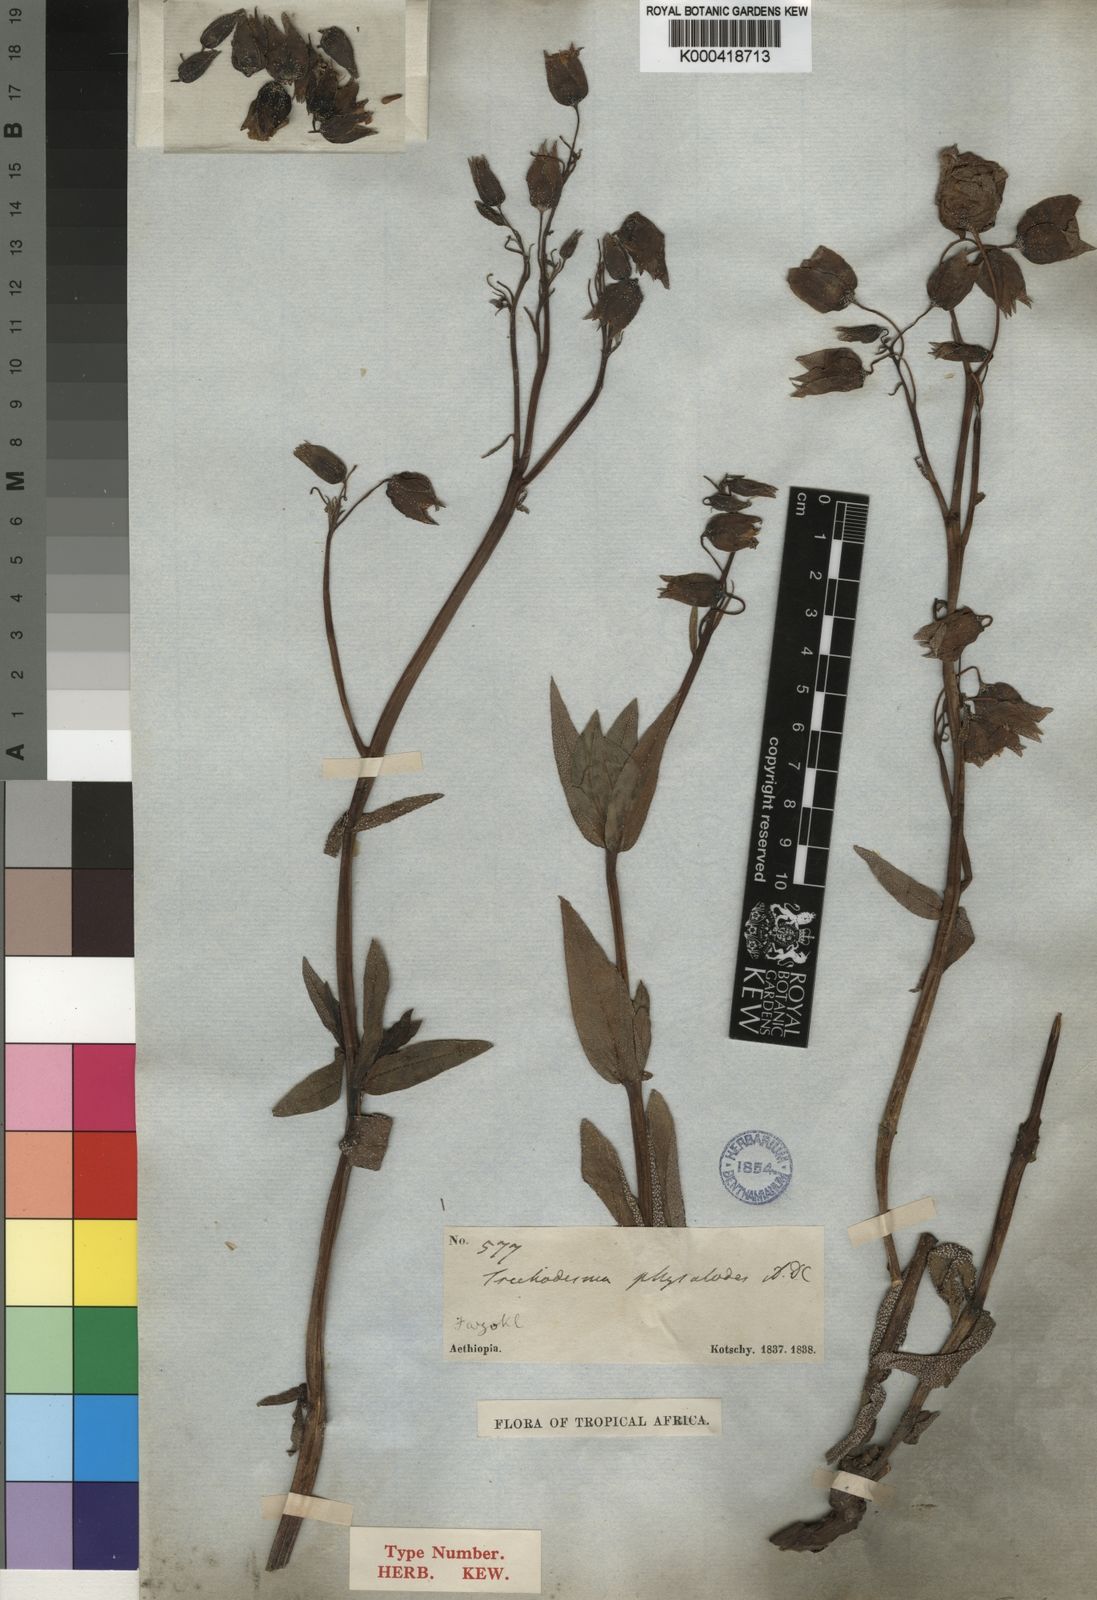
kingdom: Plantae
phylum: Tracheophyta
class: Magnoliopsida
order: Boraginales
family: Boraginaceae
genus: Trichodesma
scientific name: Trichodesma physaloides
